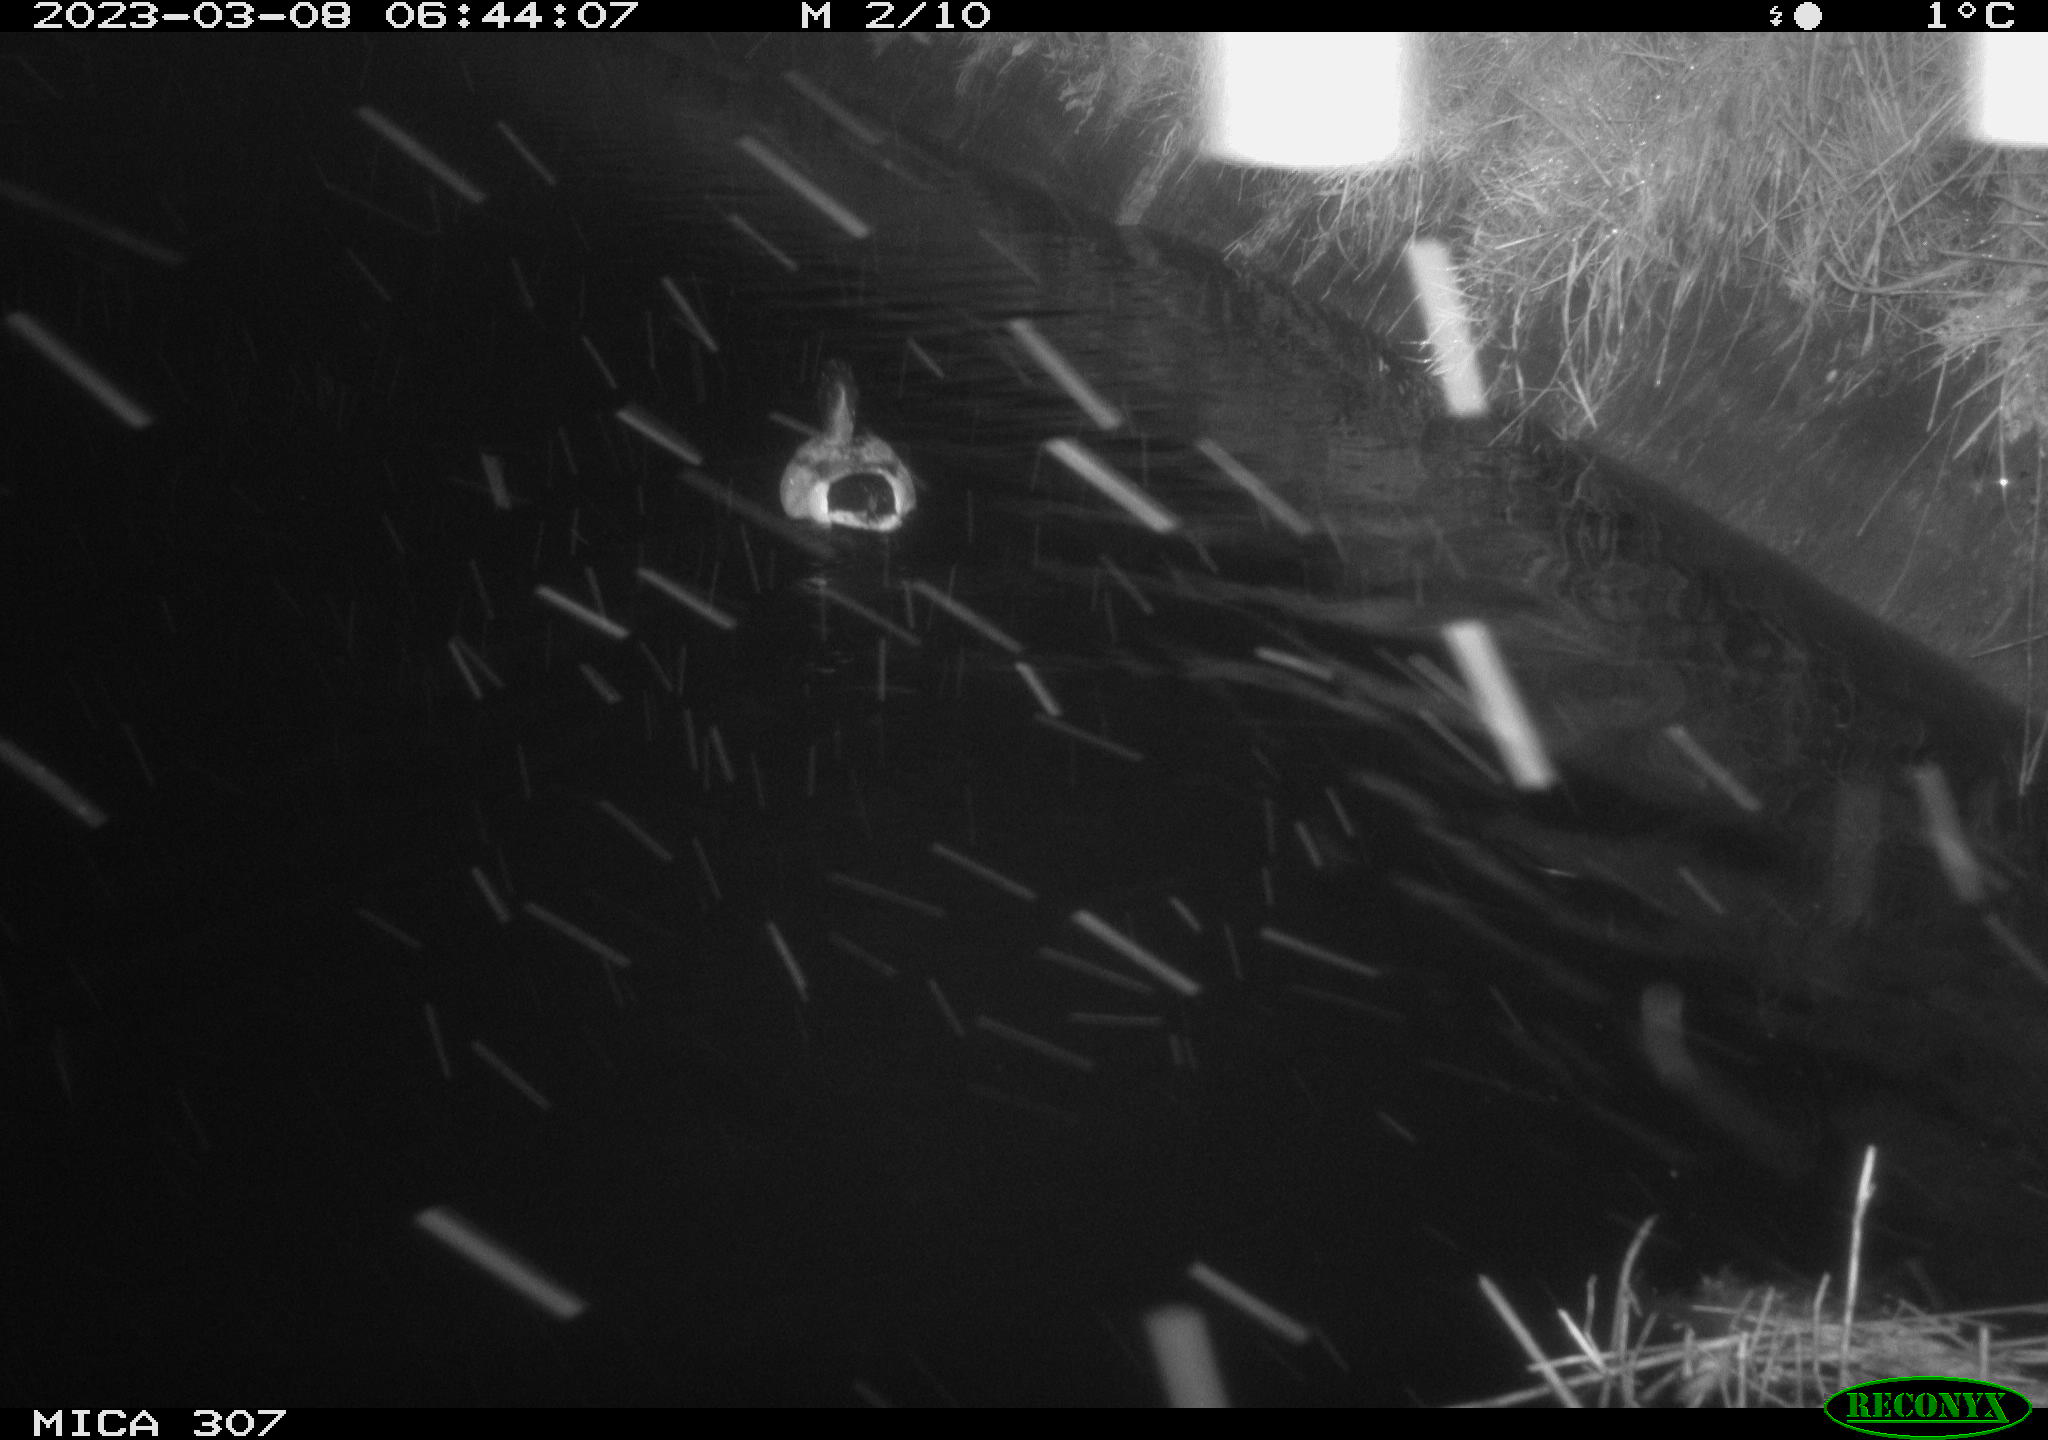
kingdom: Animalia
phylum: Chordata
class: Mammalia
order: Rodentia
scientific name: Rodentia
